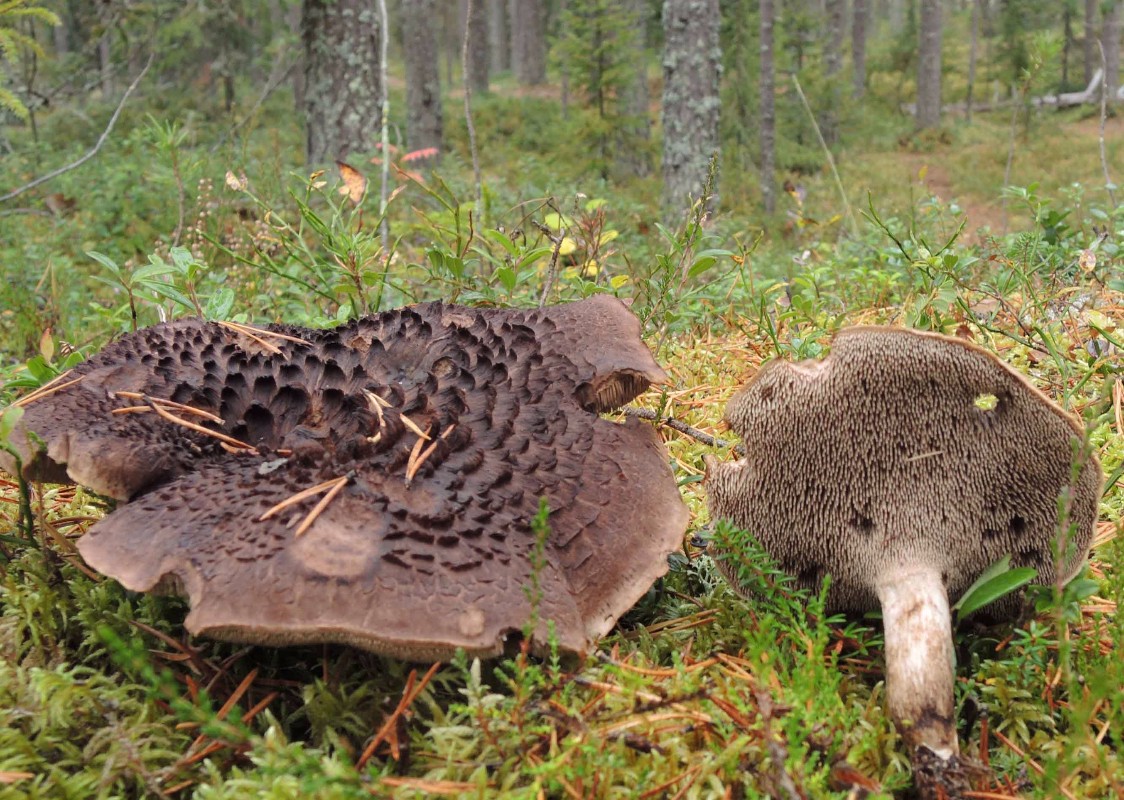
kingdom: Fungi
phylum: Basidiomycota
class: Agaricomycetes
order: Thelephorales
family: Bankeraceae
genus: Sarcodon
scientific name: Sarcodon squamosus
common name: småskællet kødpigsvamp
